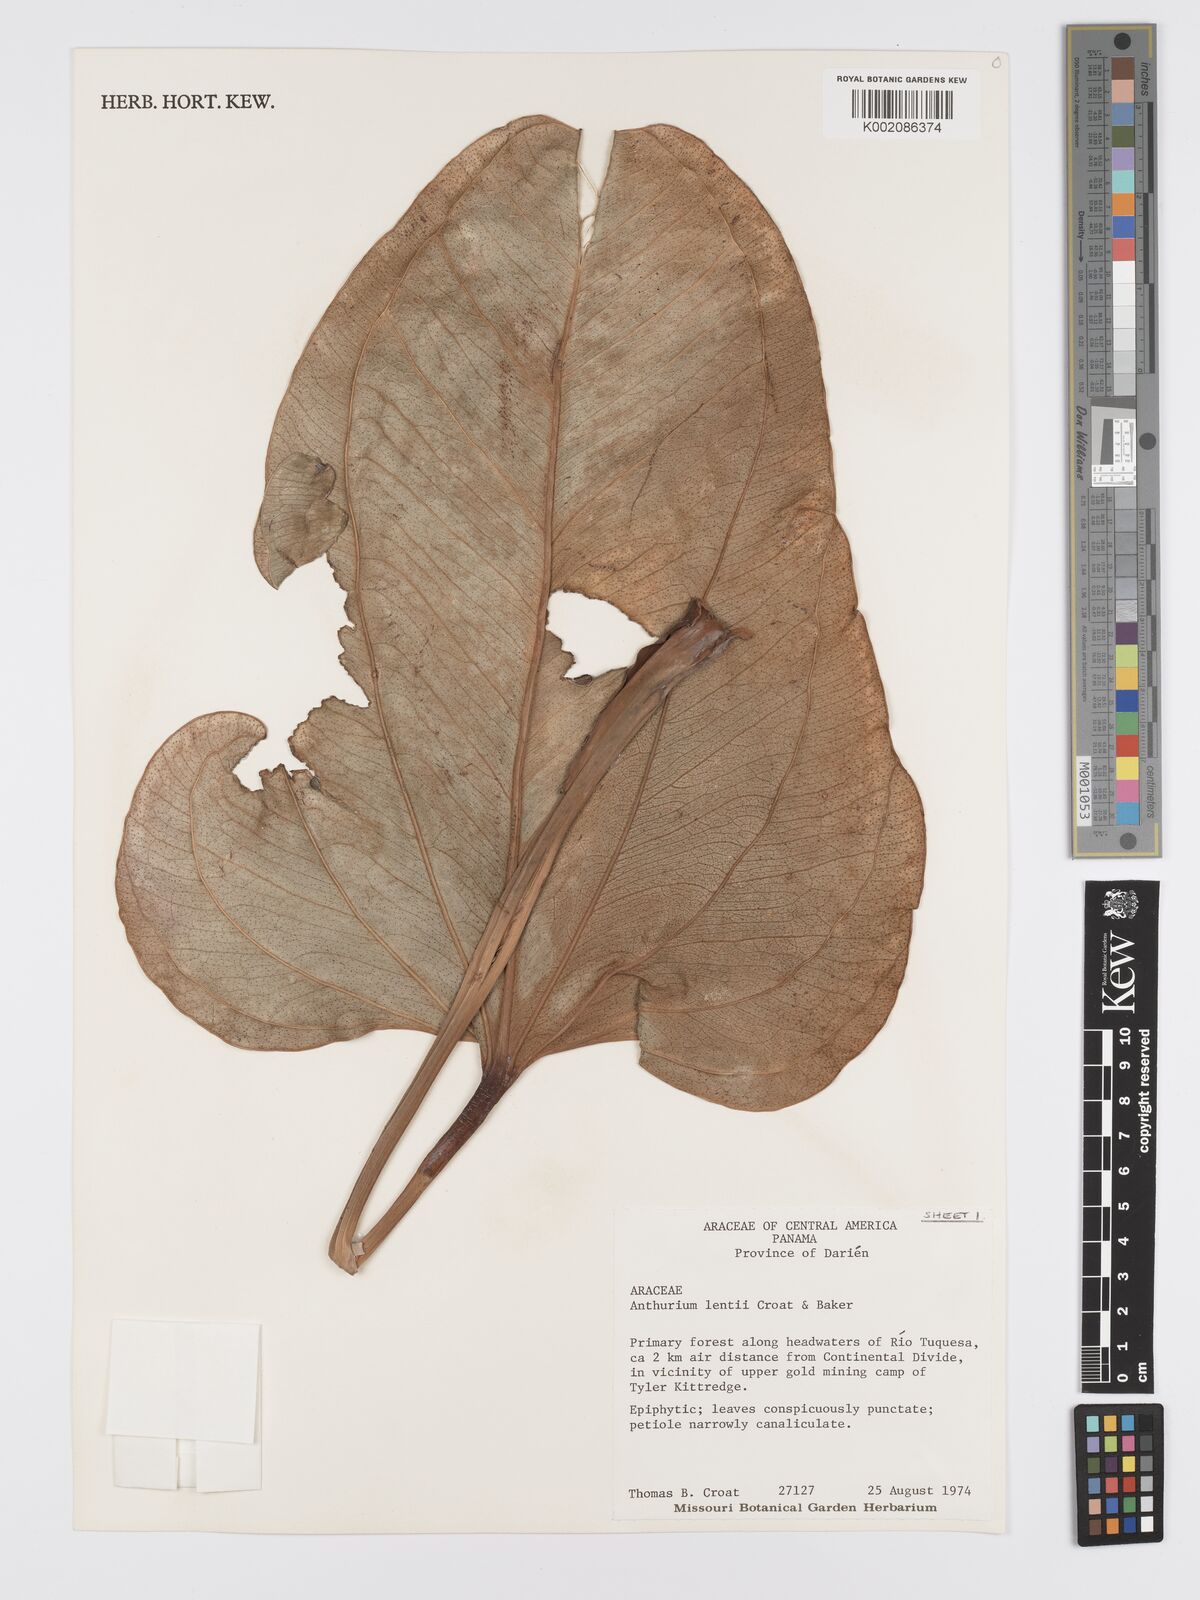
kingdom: Plantae
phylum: Tracheophyta
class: Liliopsida
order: Alismatales
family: Araceae
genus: Anthurium
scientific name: Anthurium lentii
